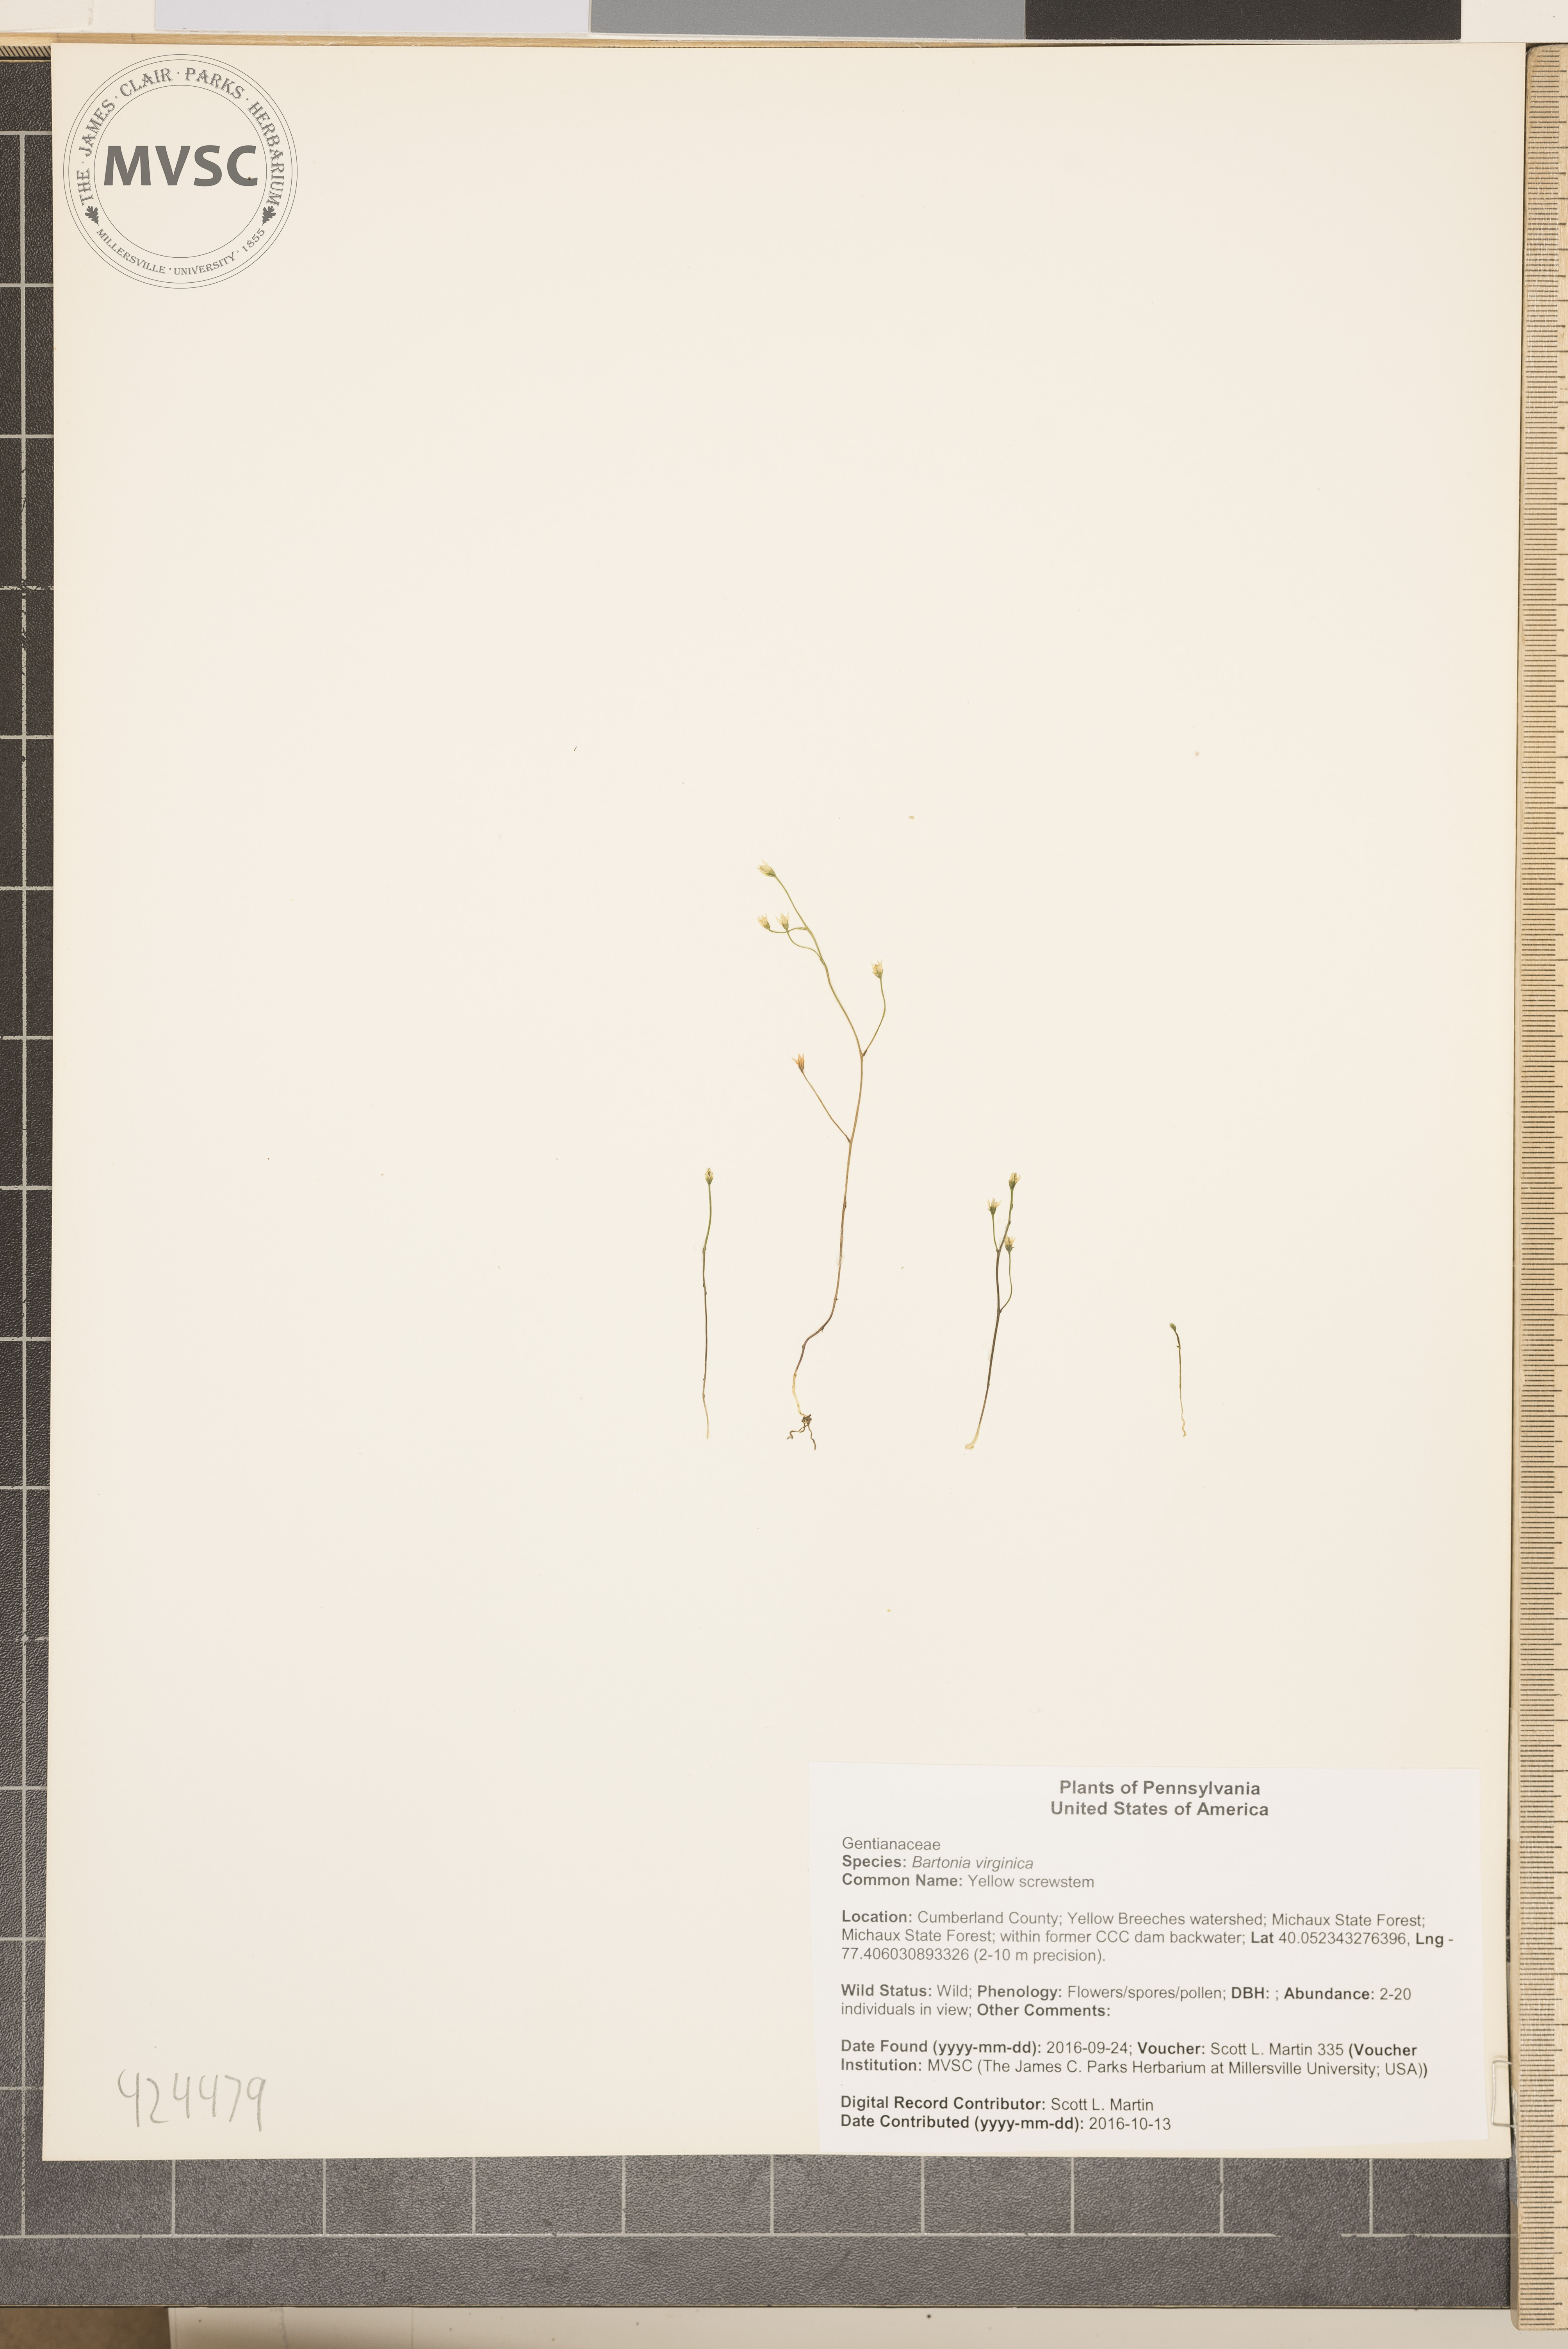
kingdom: Plantae
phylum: Tracheophyta
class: Magnoliopsida
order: Gentianales
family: Gentianaceae
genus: Bartonia
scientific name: Bartonia virginica
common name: Yellow screwstem
